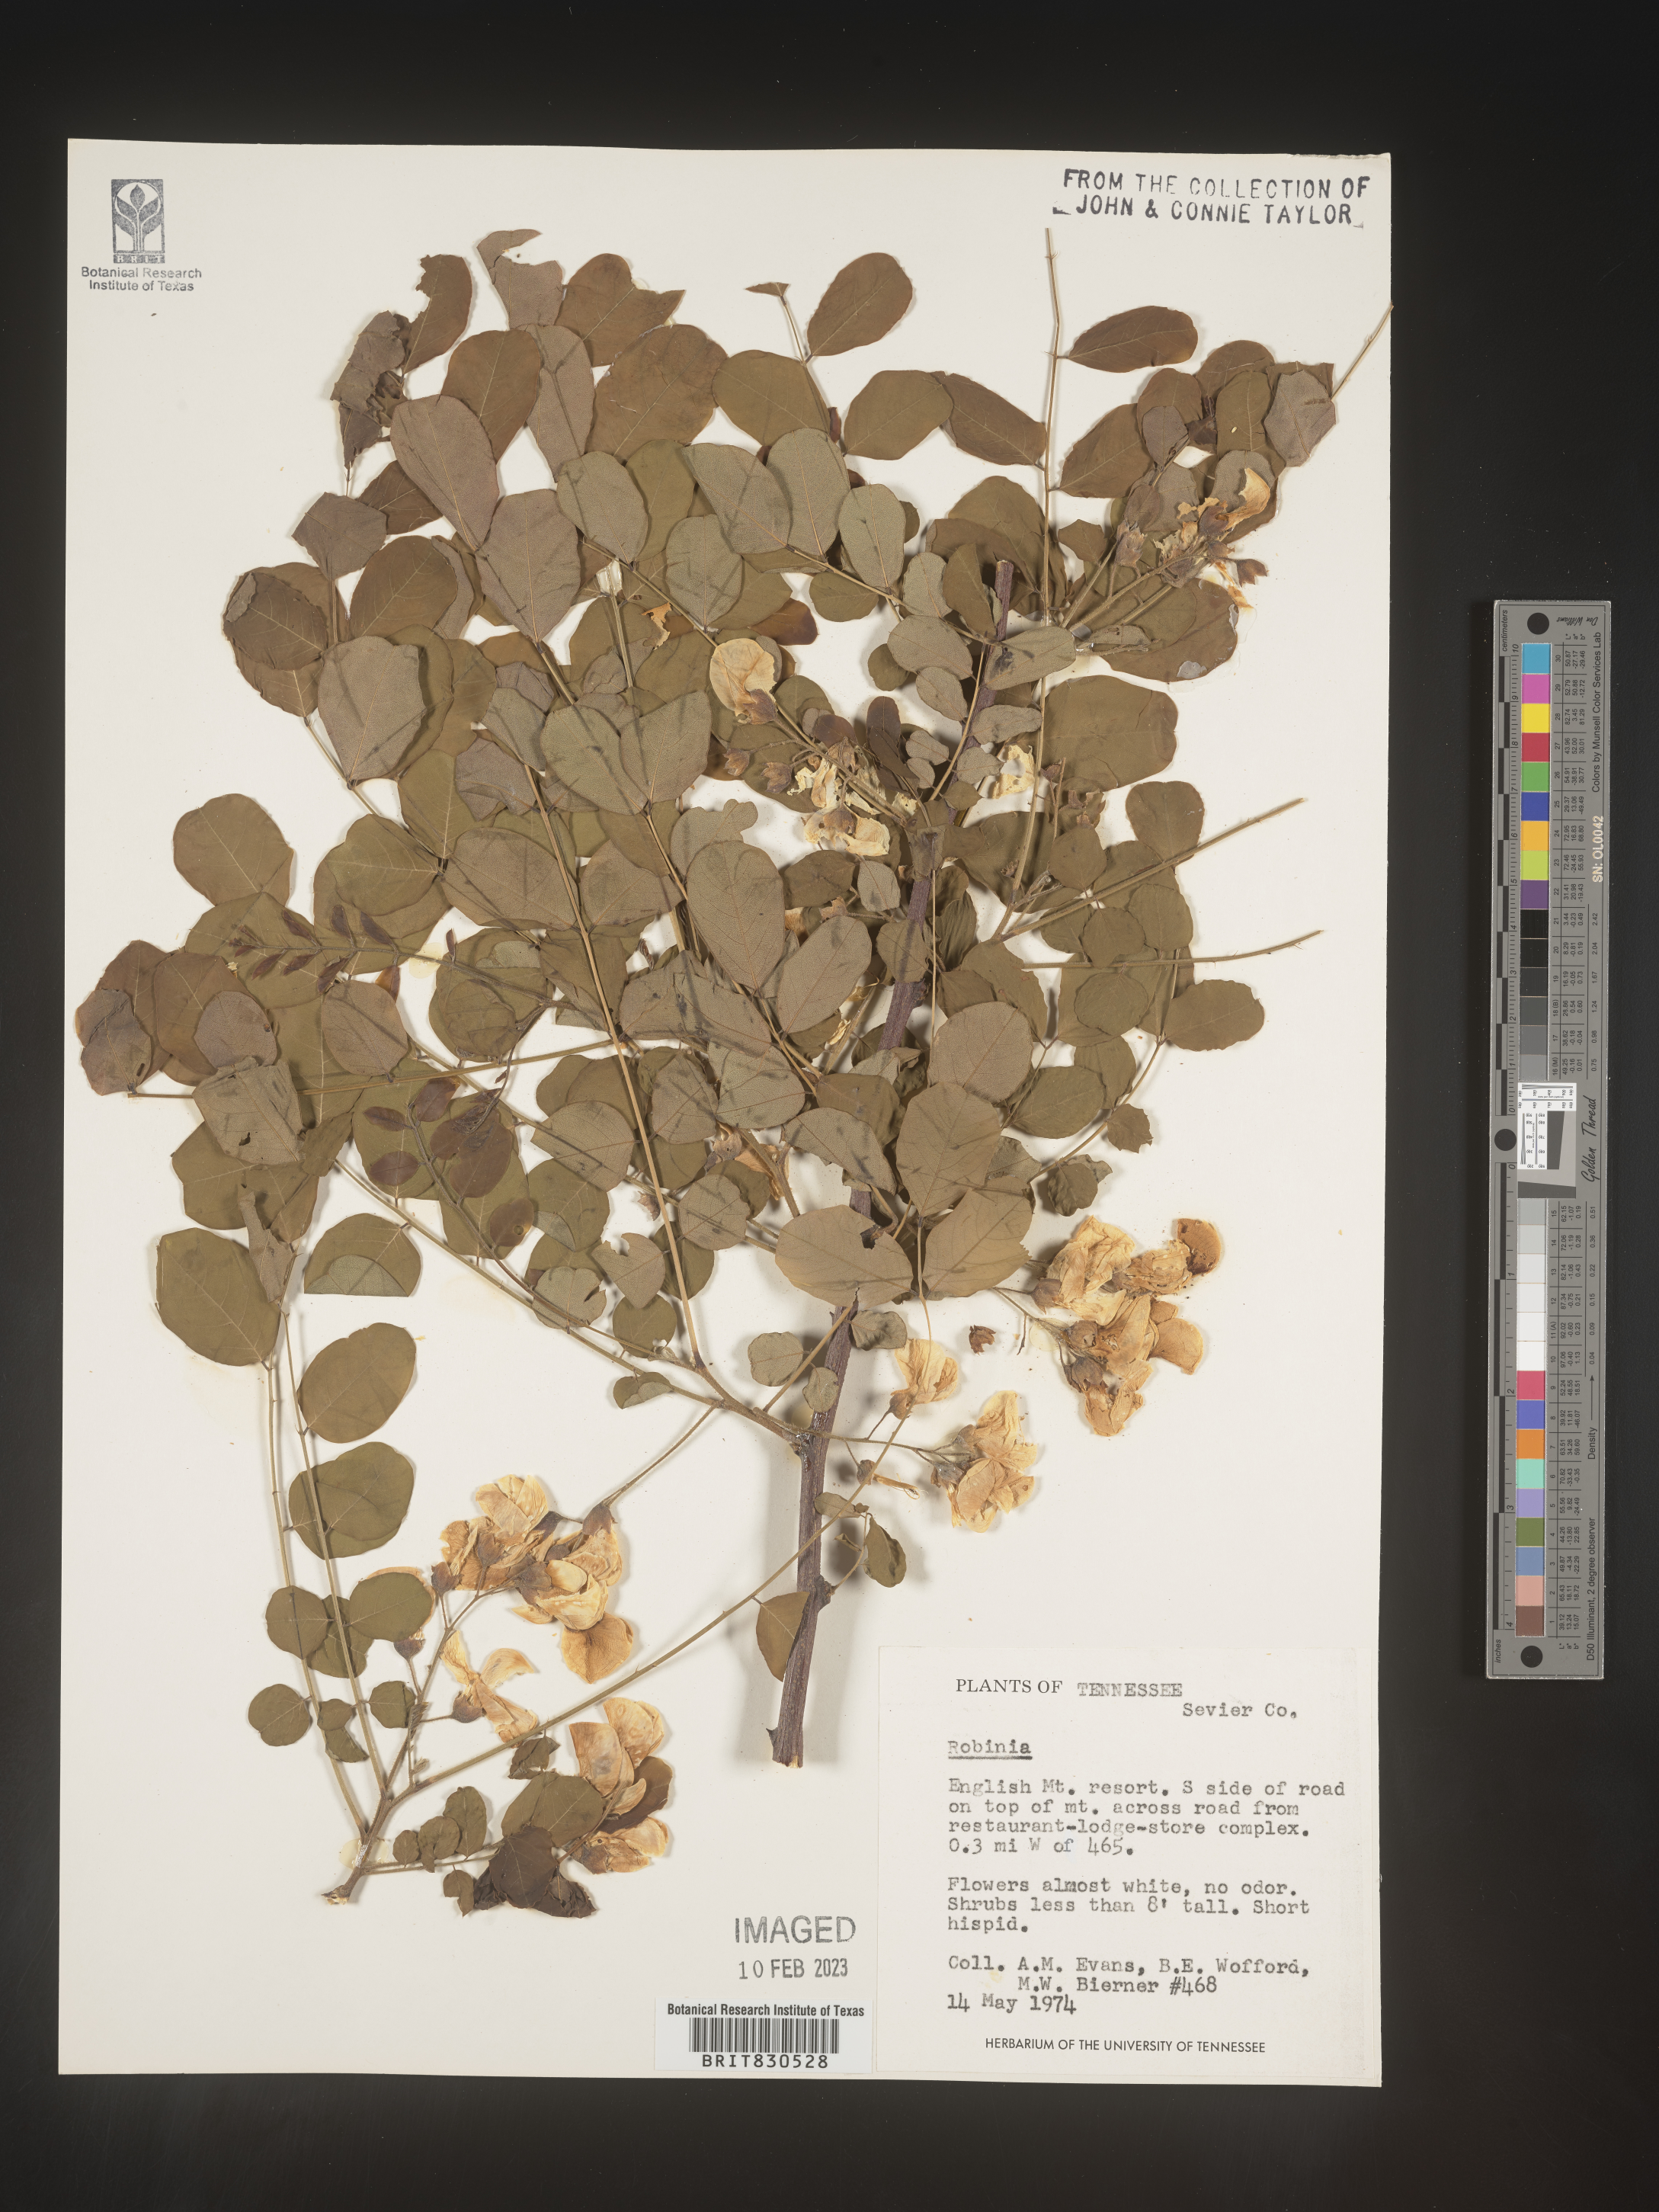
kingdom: Plantae
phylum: Tracheophyta
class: Magnoliopsida
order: Fabales
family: Fabaceae
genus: Robinia
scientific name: Robinia
